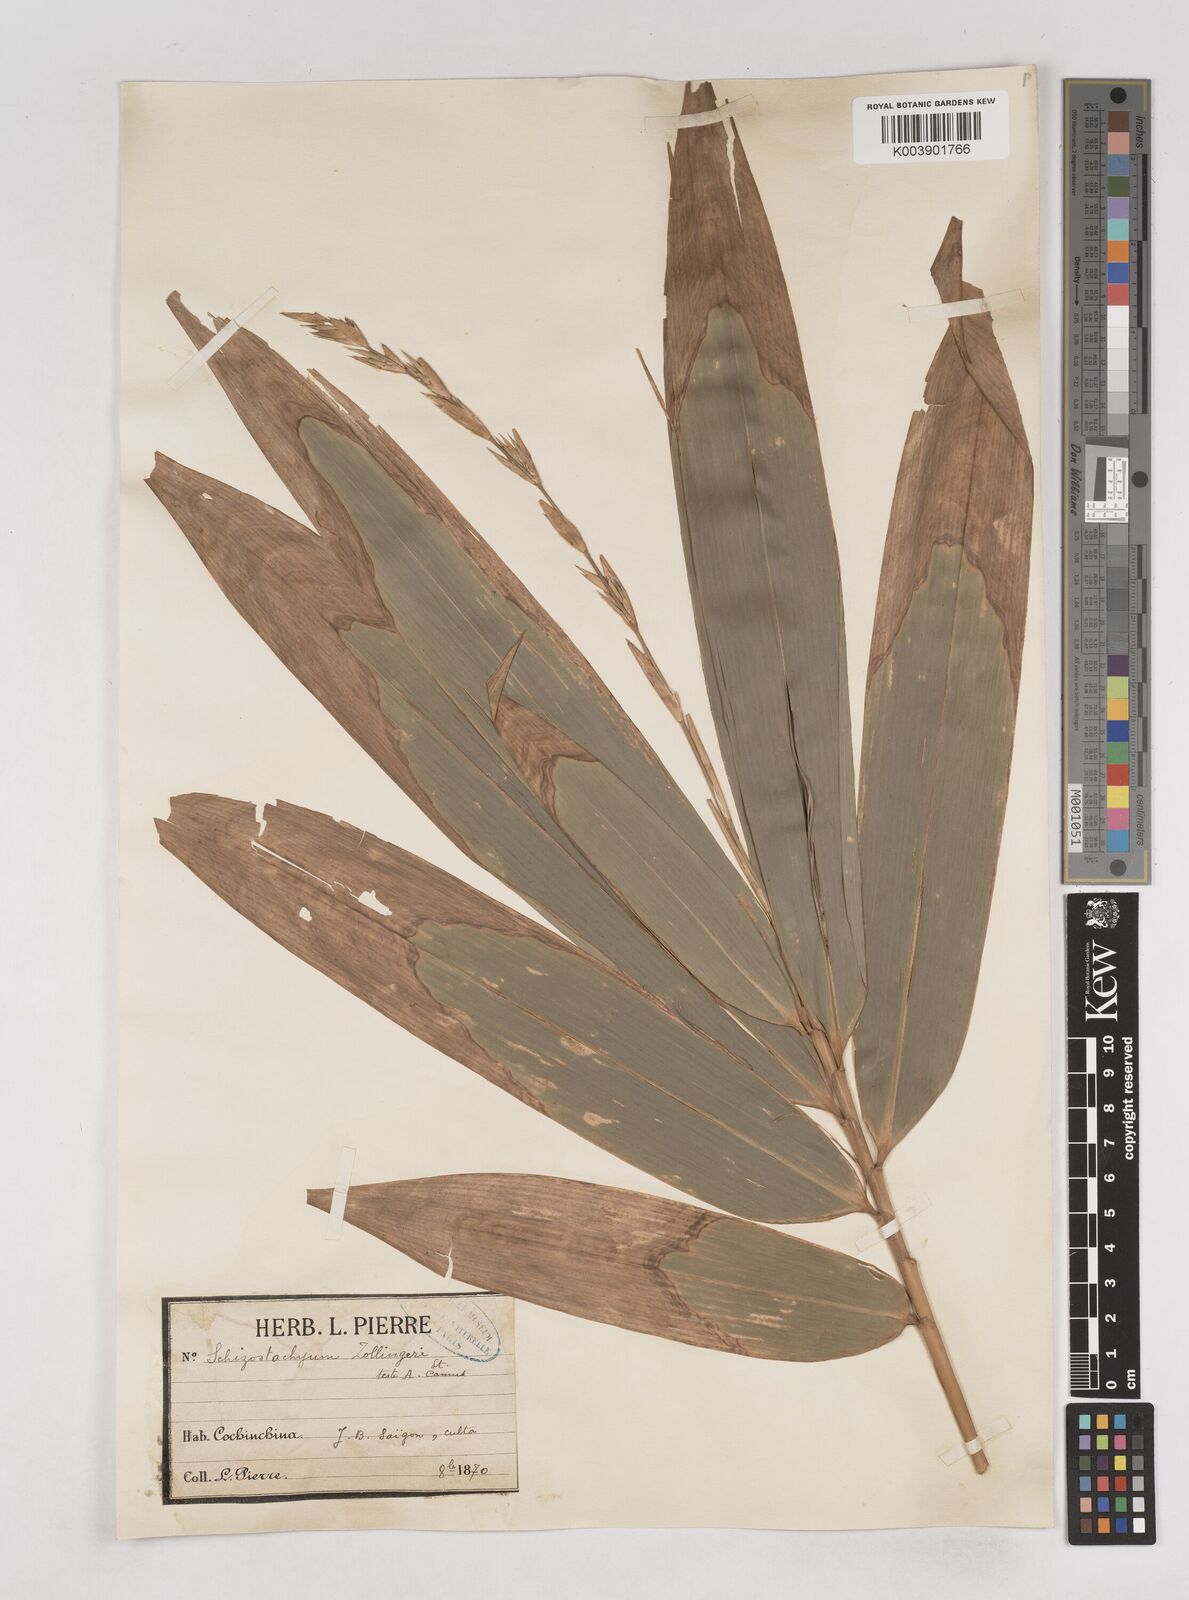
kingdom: Plantae
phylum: Tracheophyta
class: Liliopsida
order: Poales
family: Poaceae
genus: Schizostachyum
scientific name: Schizostachyum zollingeri
